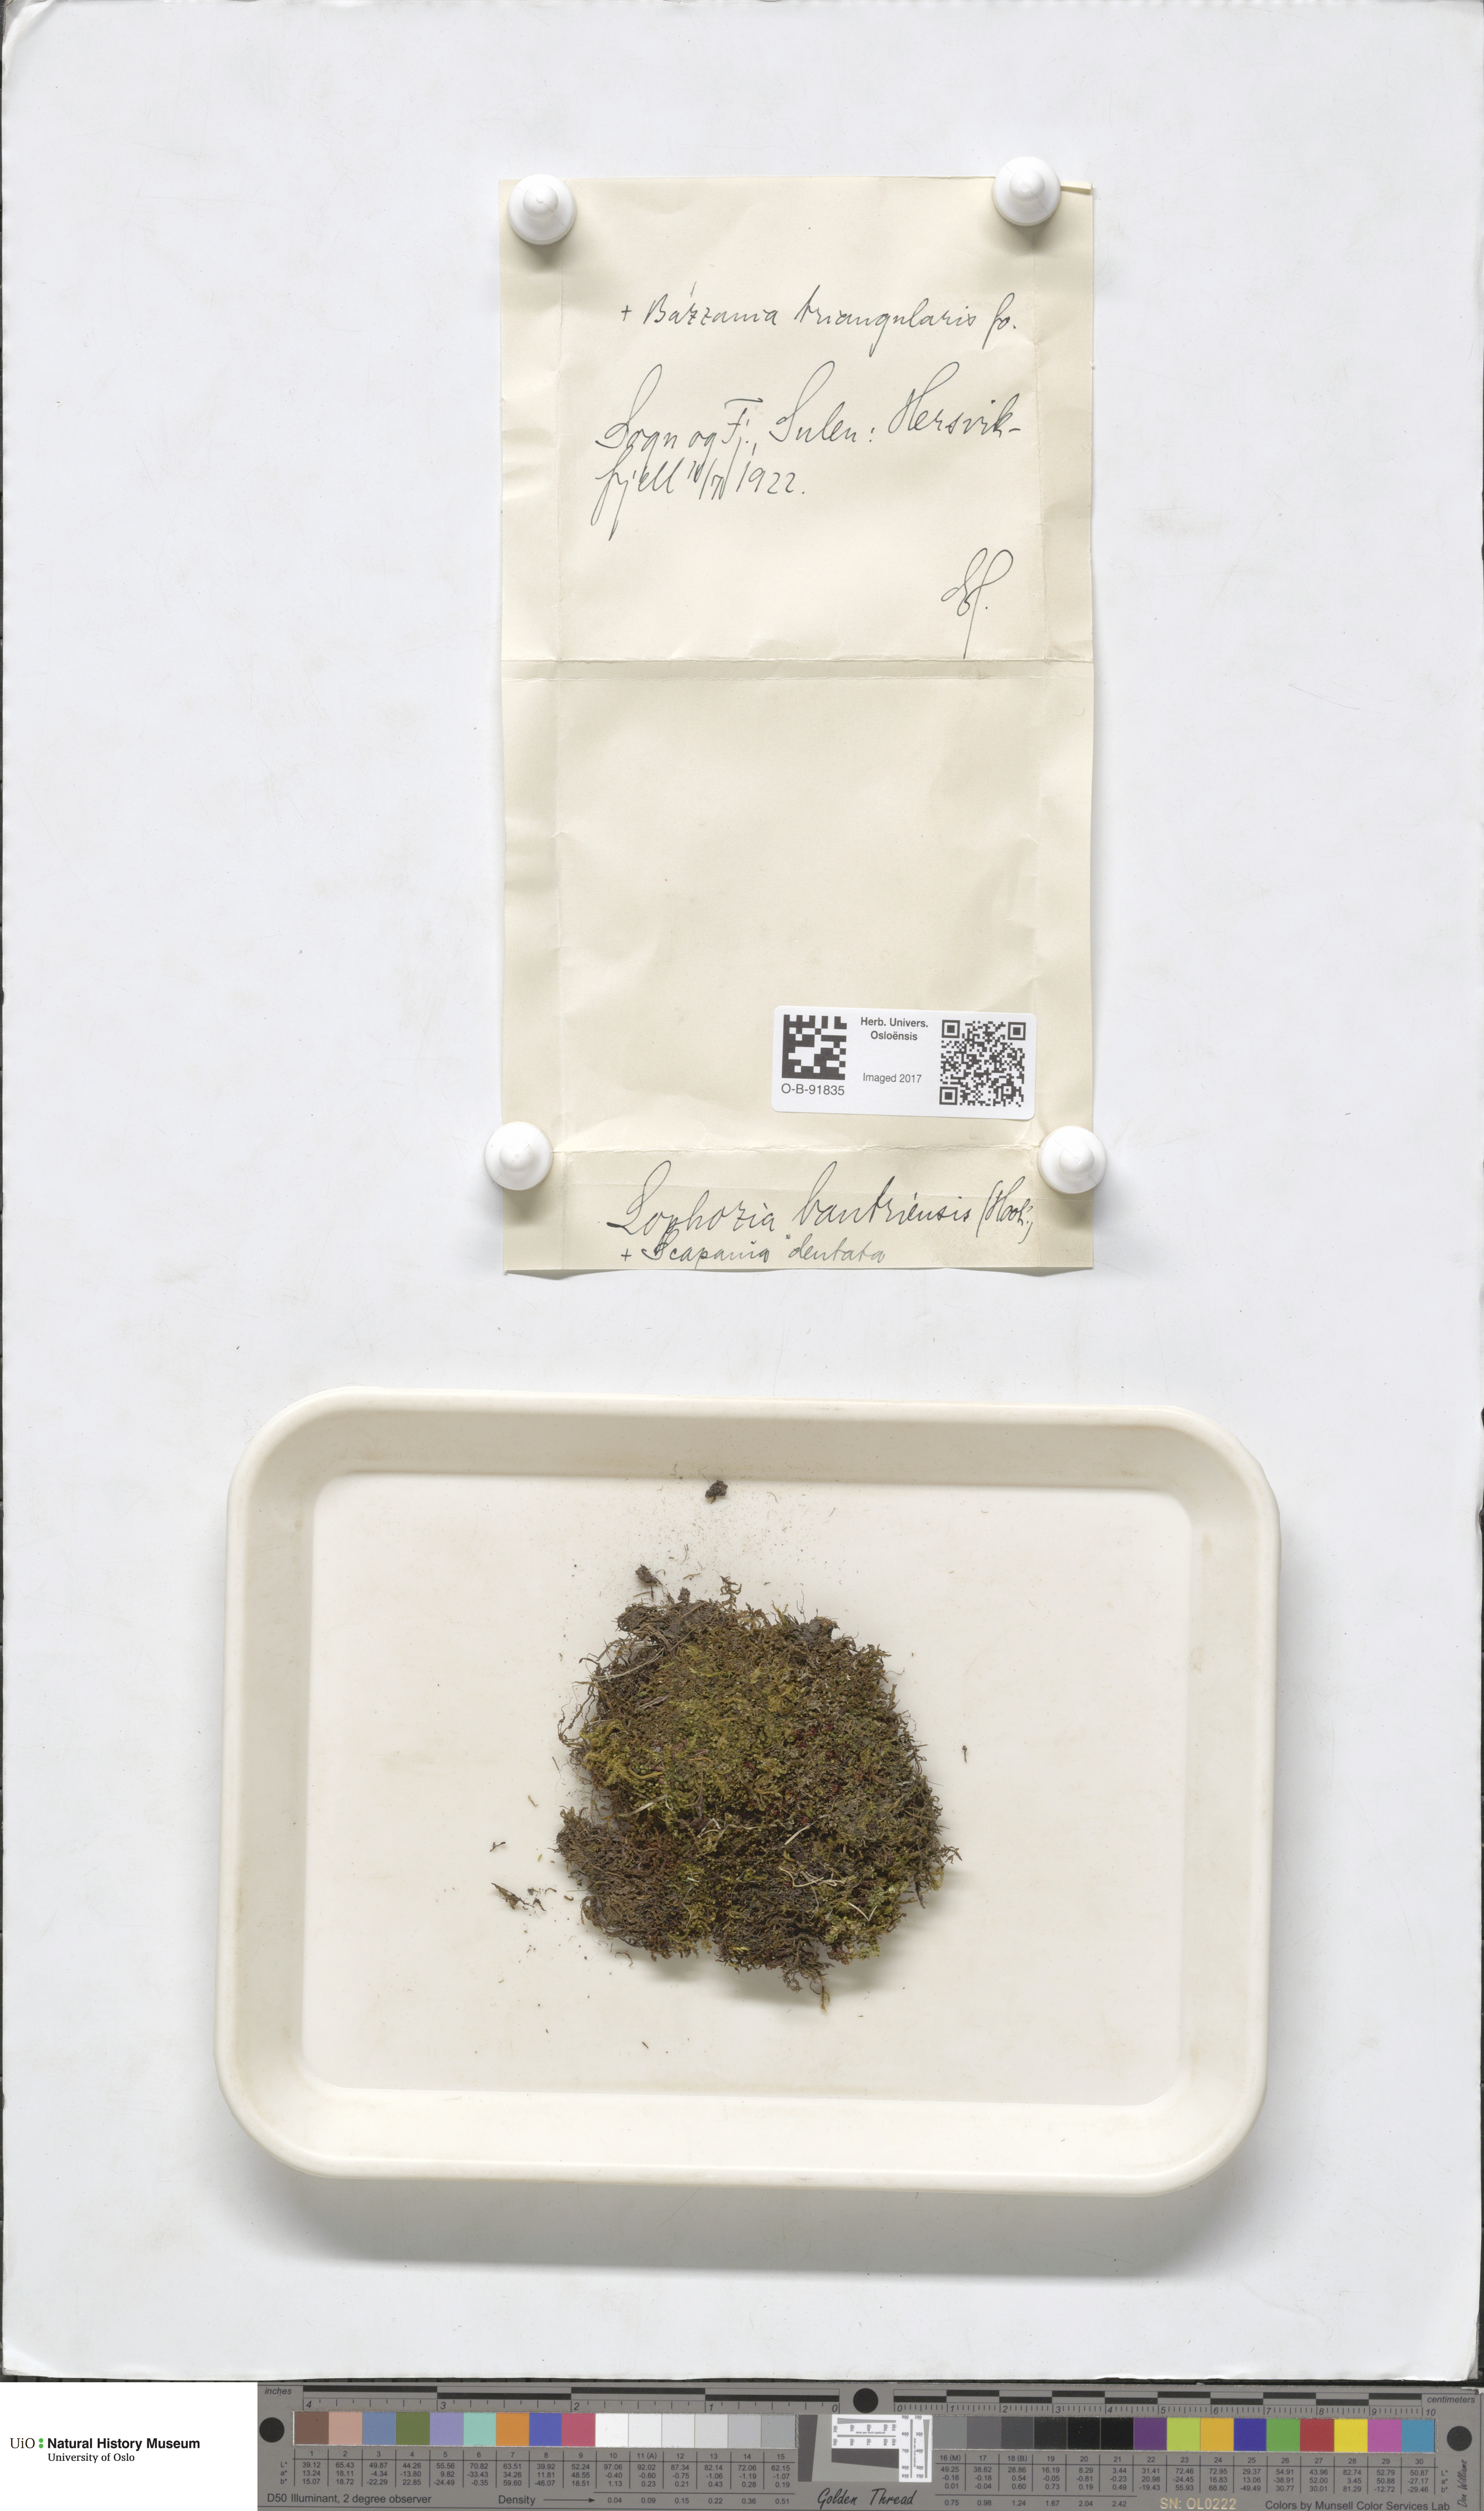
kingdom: Plantae
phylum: Marchantiophyta
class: Jungermanniopsida
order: Jungermanniales
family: Jungermanniaceae
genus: Mesoptychia
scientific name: Mesoptychia bantriensis
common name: Bantry notchwort
